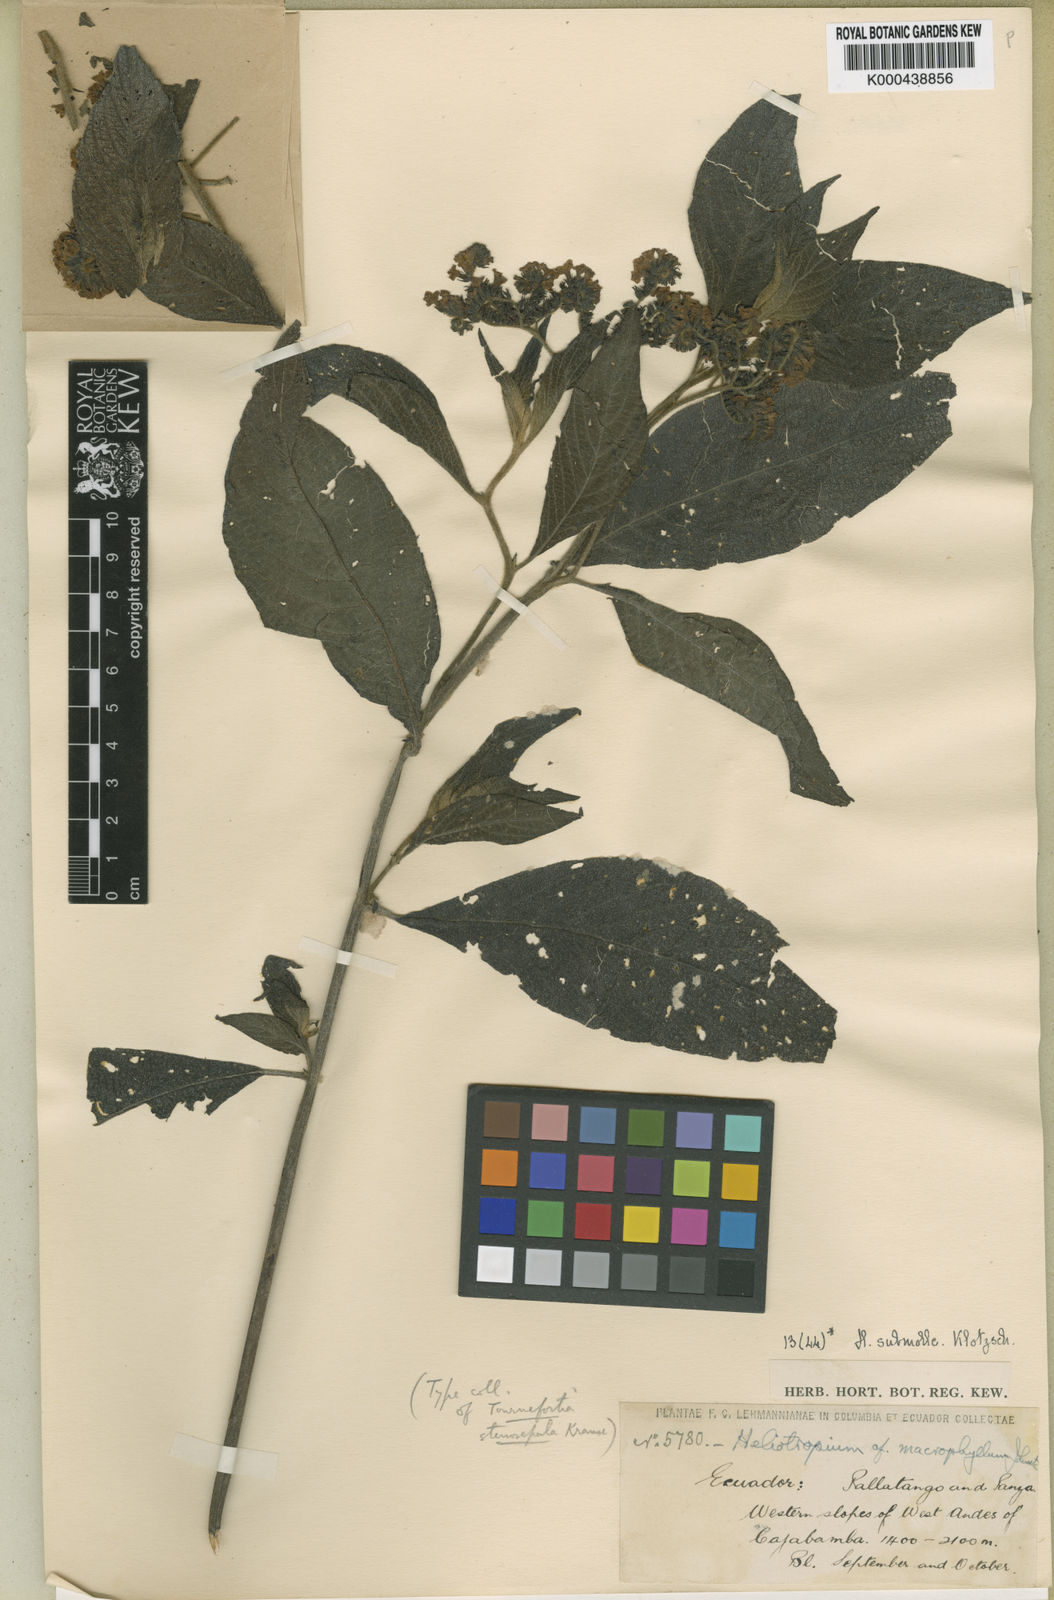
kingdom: Plantae
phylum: Tracheophyta
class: Magnoliopsida
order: Boraginales
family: Heliotropiaceae
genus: Tournefortia
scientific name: Tournefortia stenosepala
